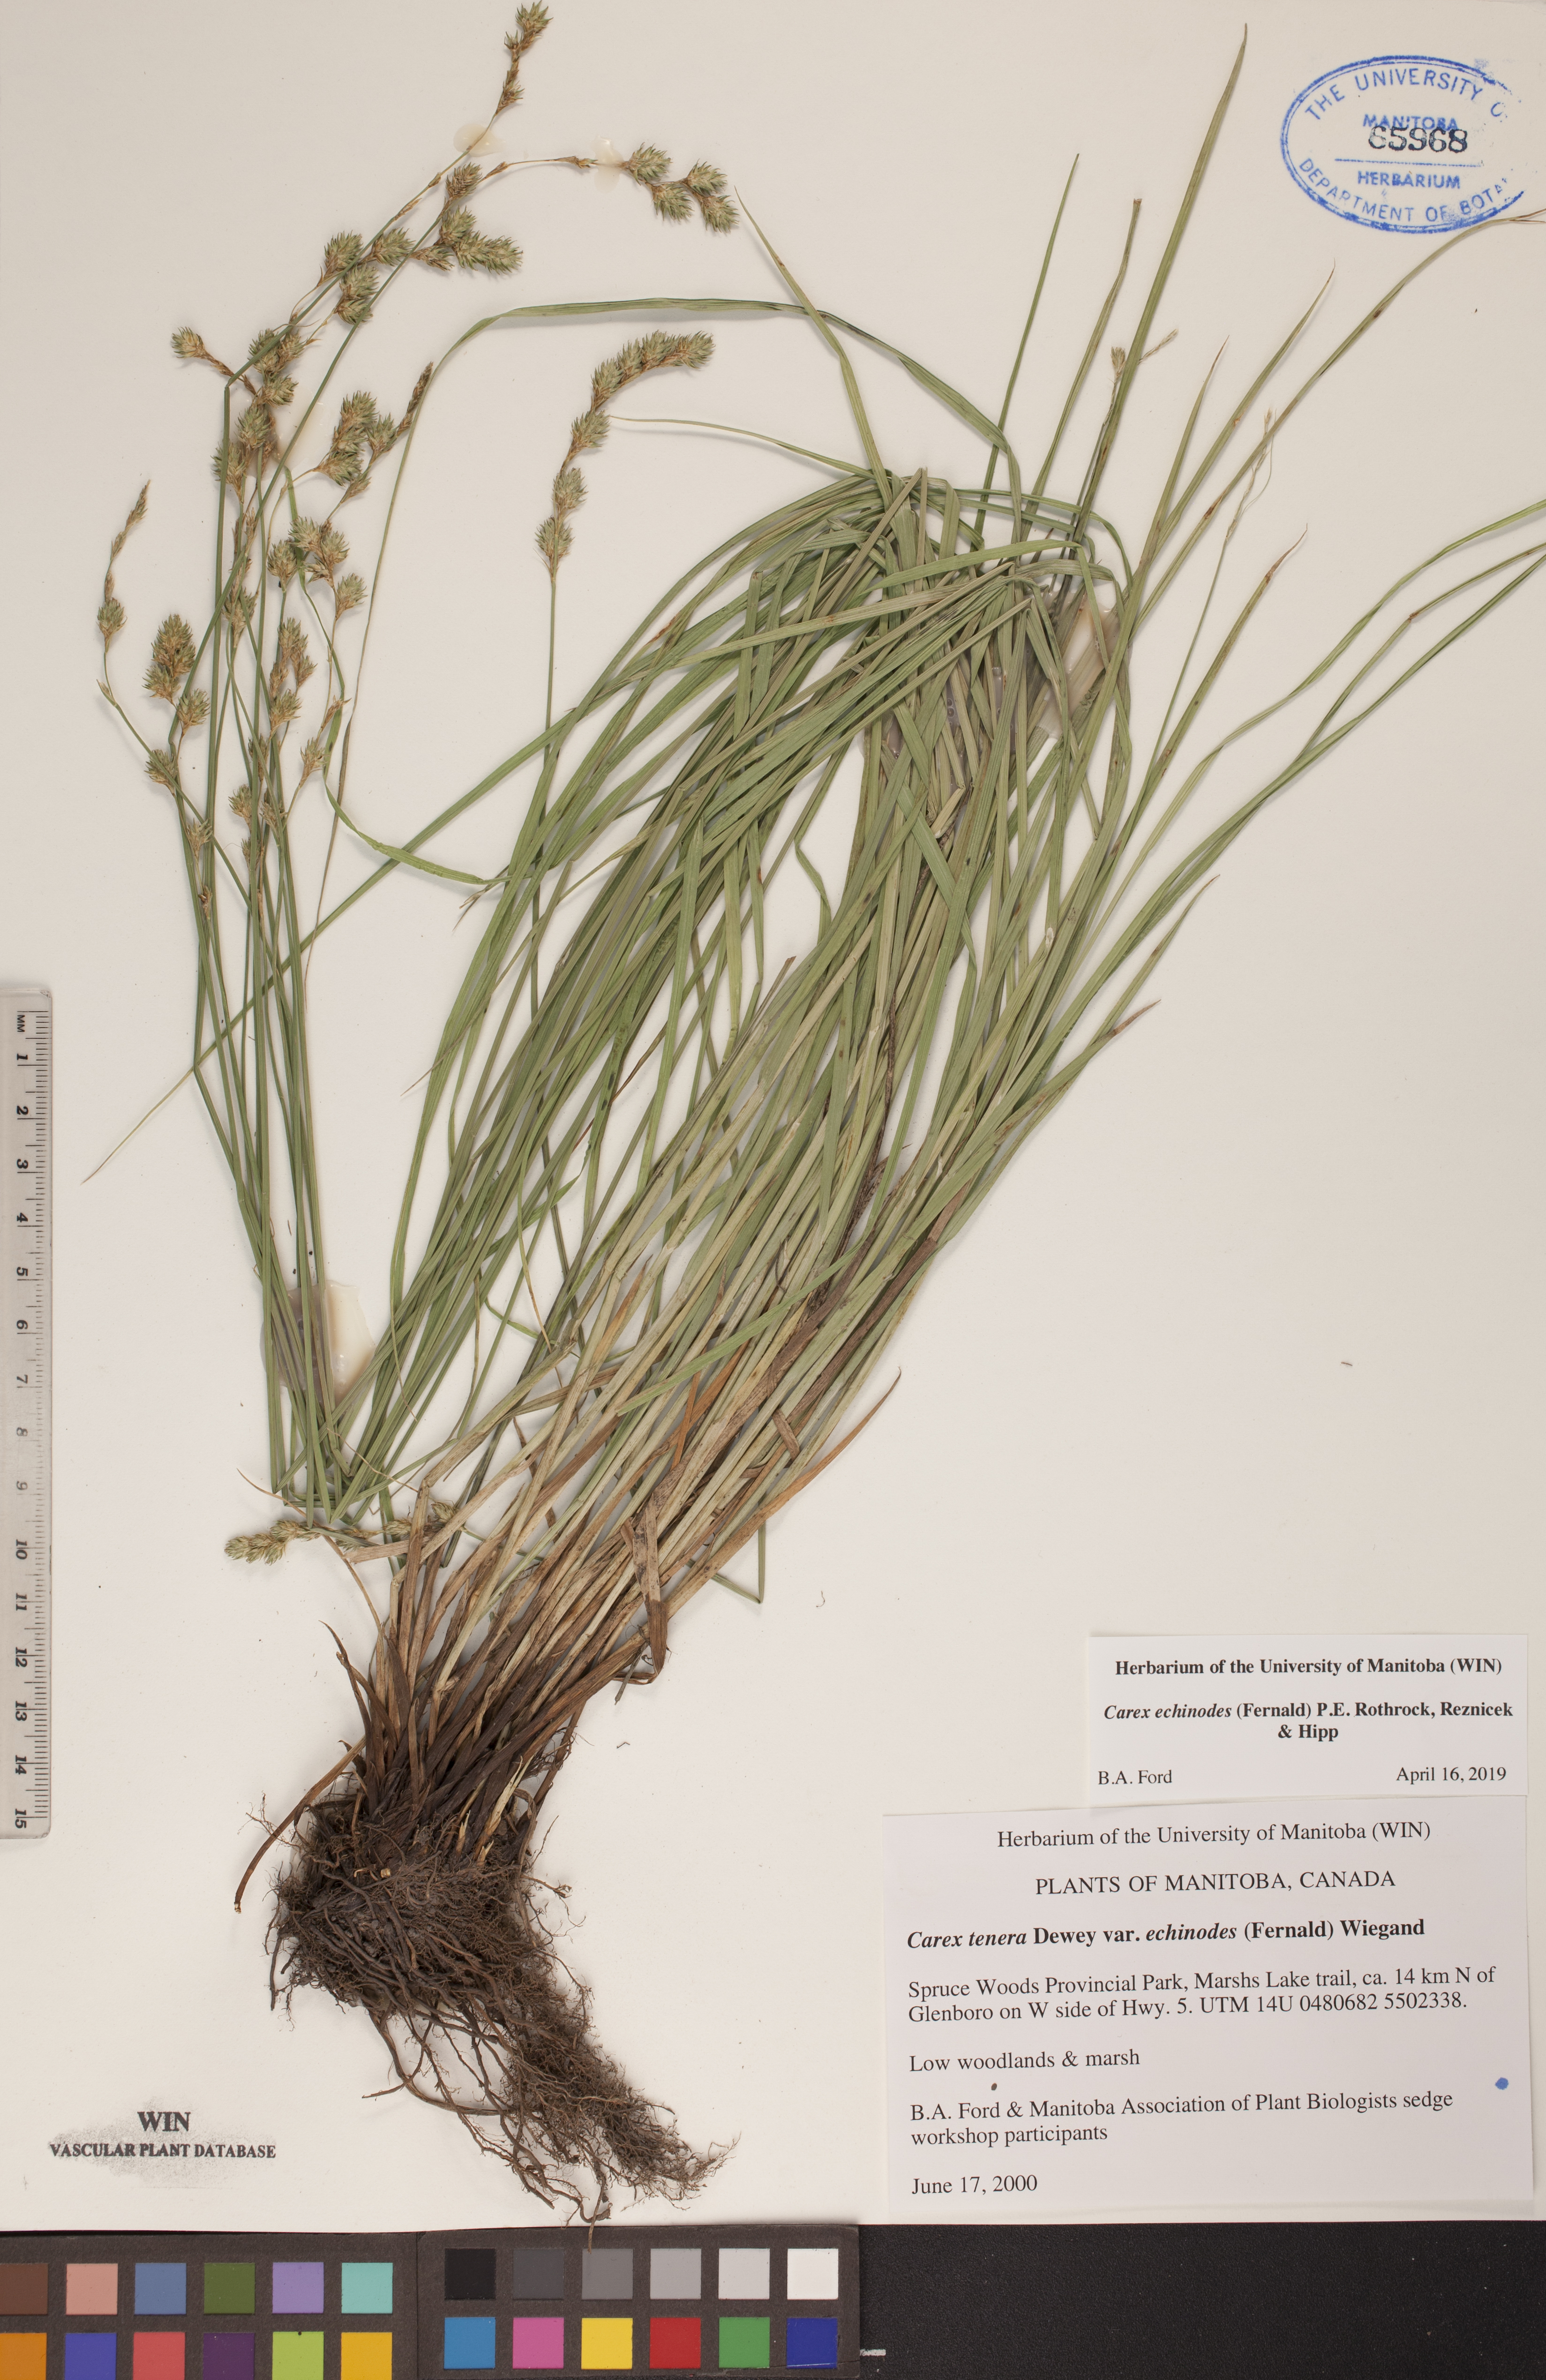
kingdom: Plantae
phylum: Tracheophyta
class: Liliopsida
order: Poales
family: Cyperaceae
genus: Carex
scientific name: Carex echinodes
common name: Marsh straw sedge
